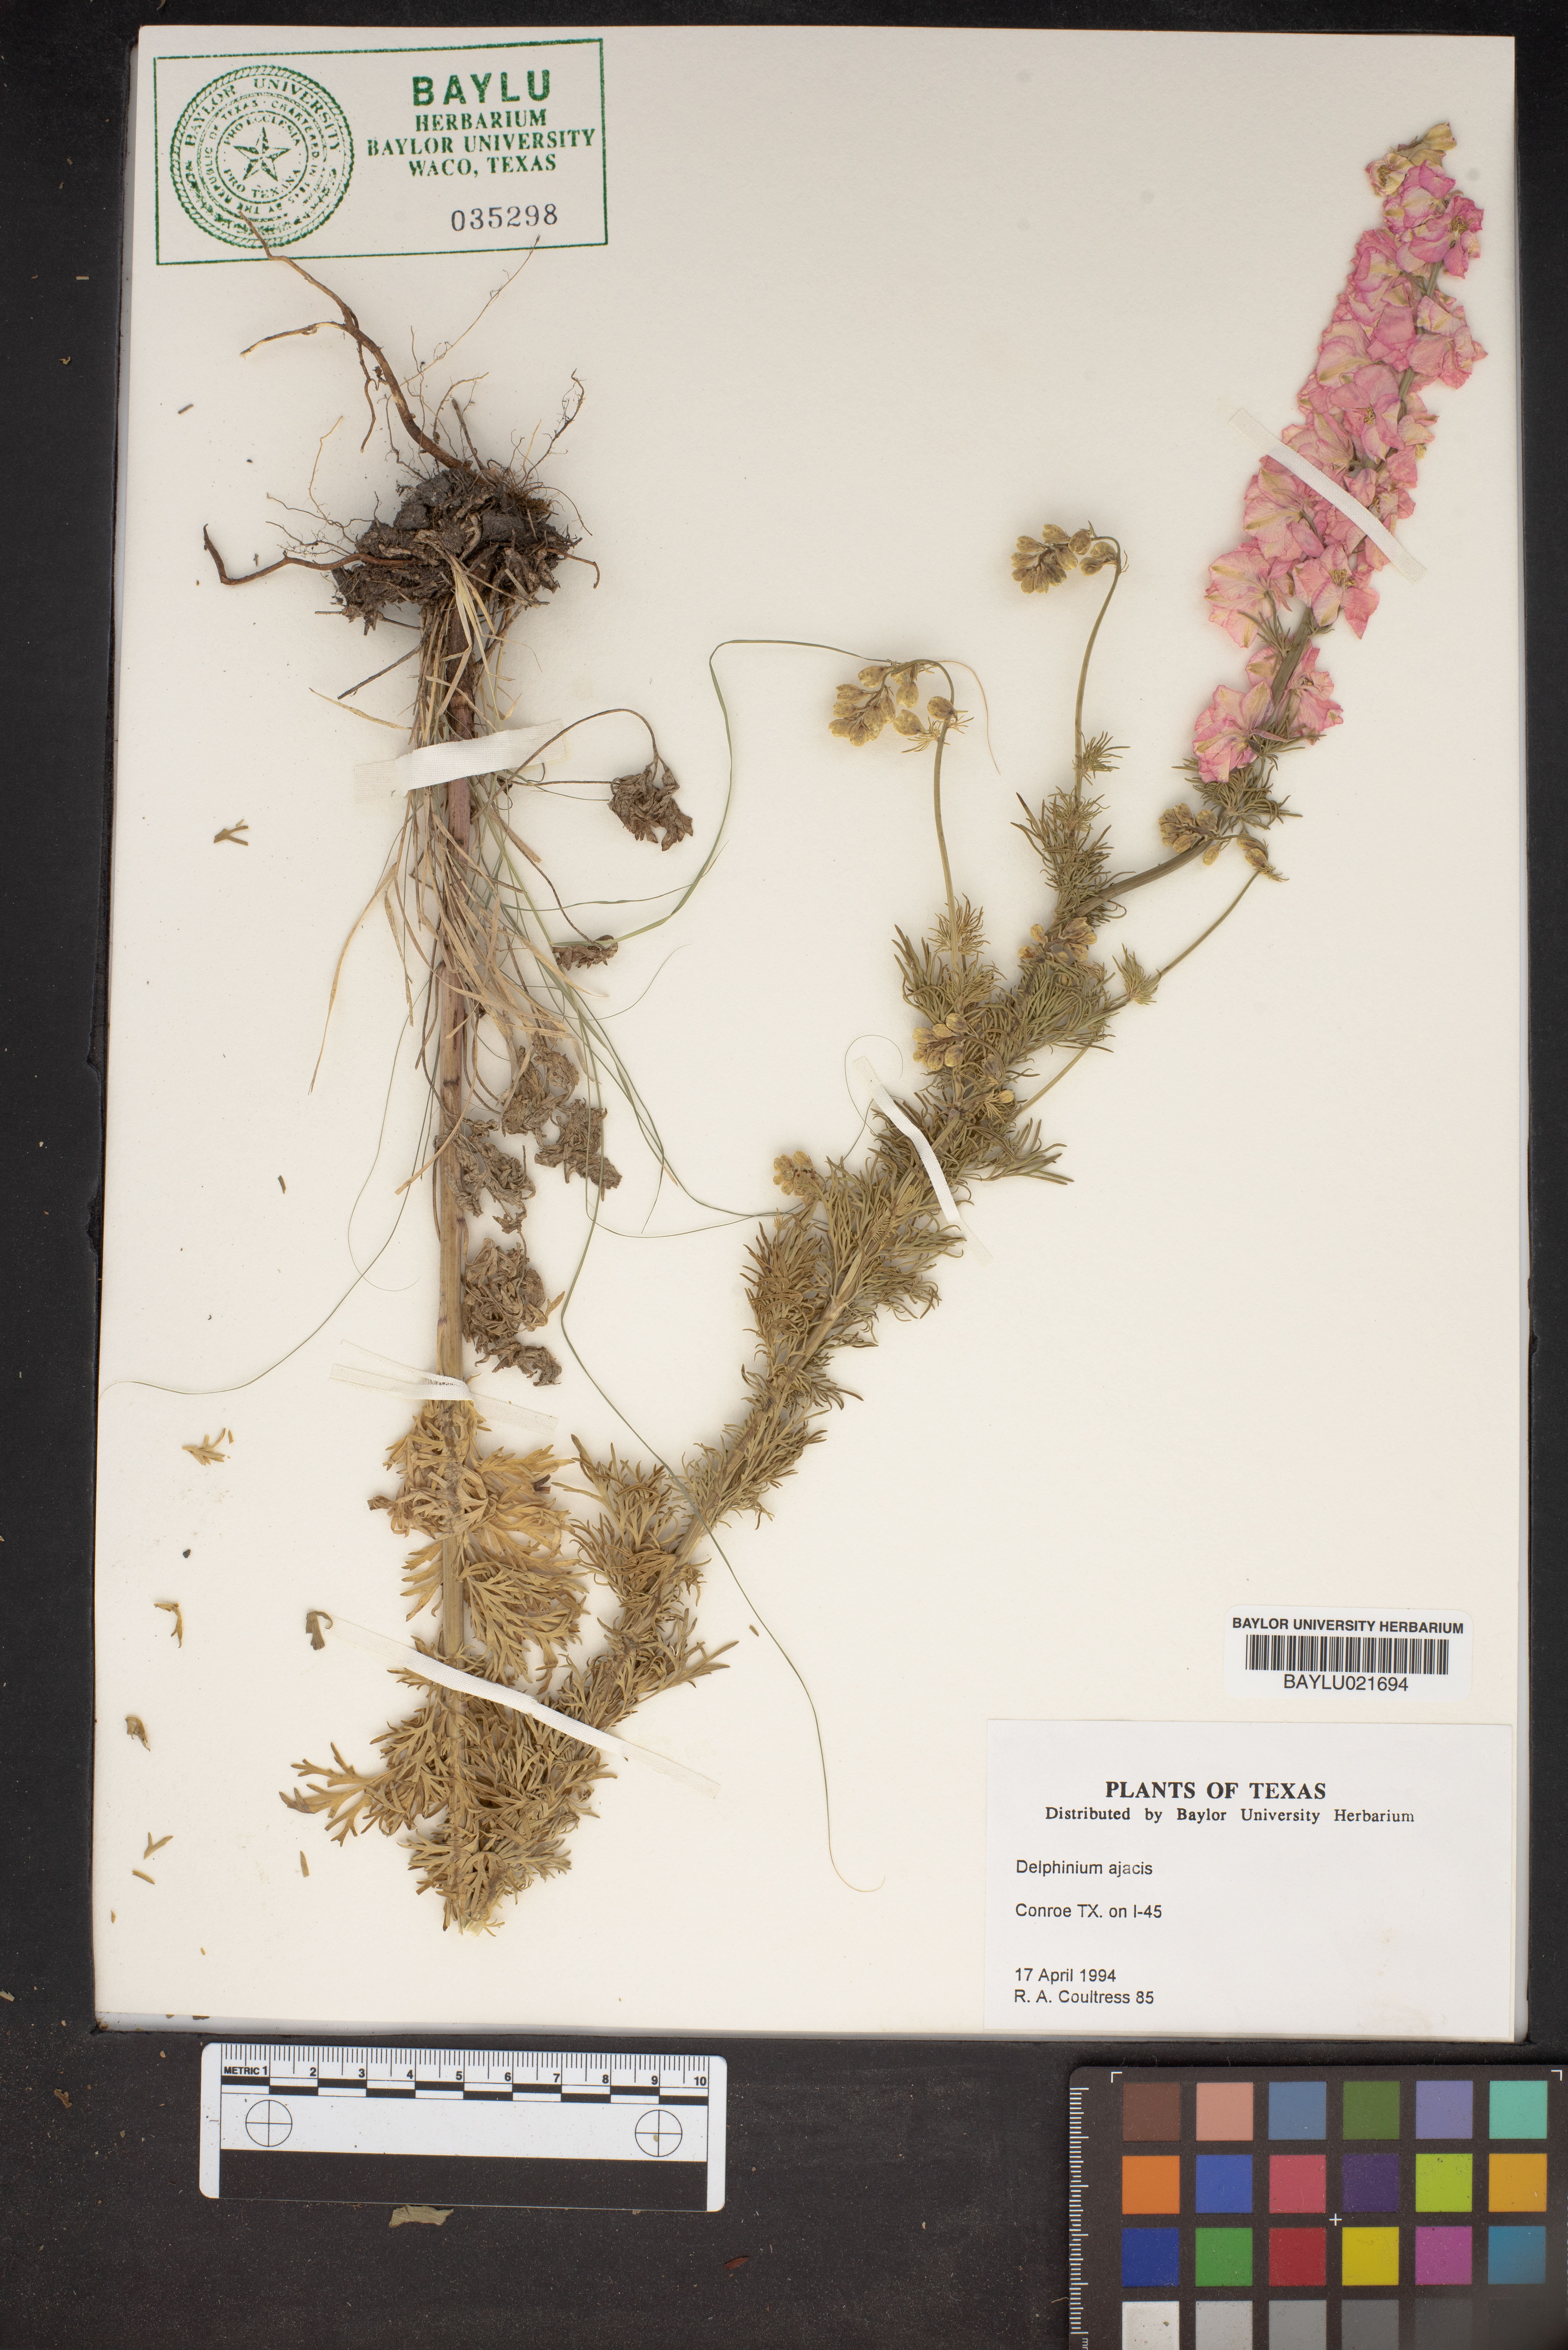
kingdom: Plantae
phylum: Tracheophyta
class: Magnoliopsida
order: Ranunculales
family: Ranunculaceae
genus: Delphinium
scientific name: Delphinium ajacis
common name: Doubtful knight's-spur
